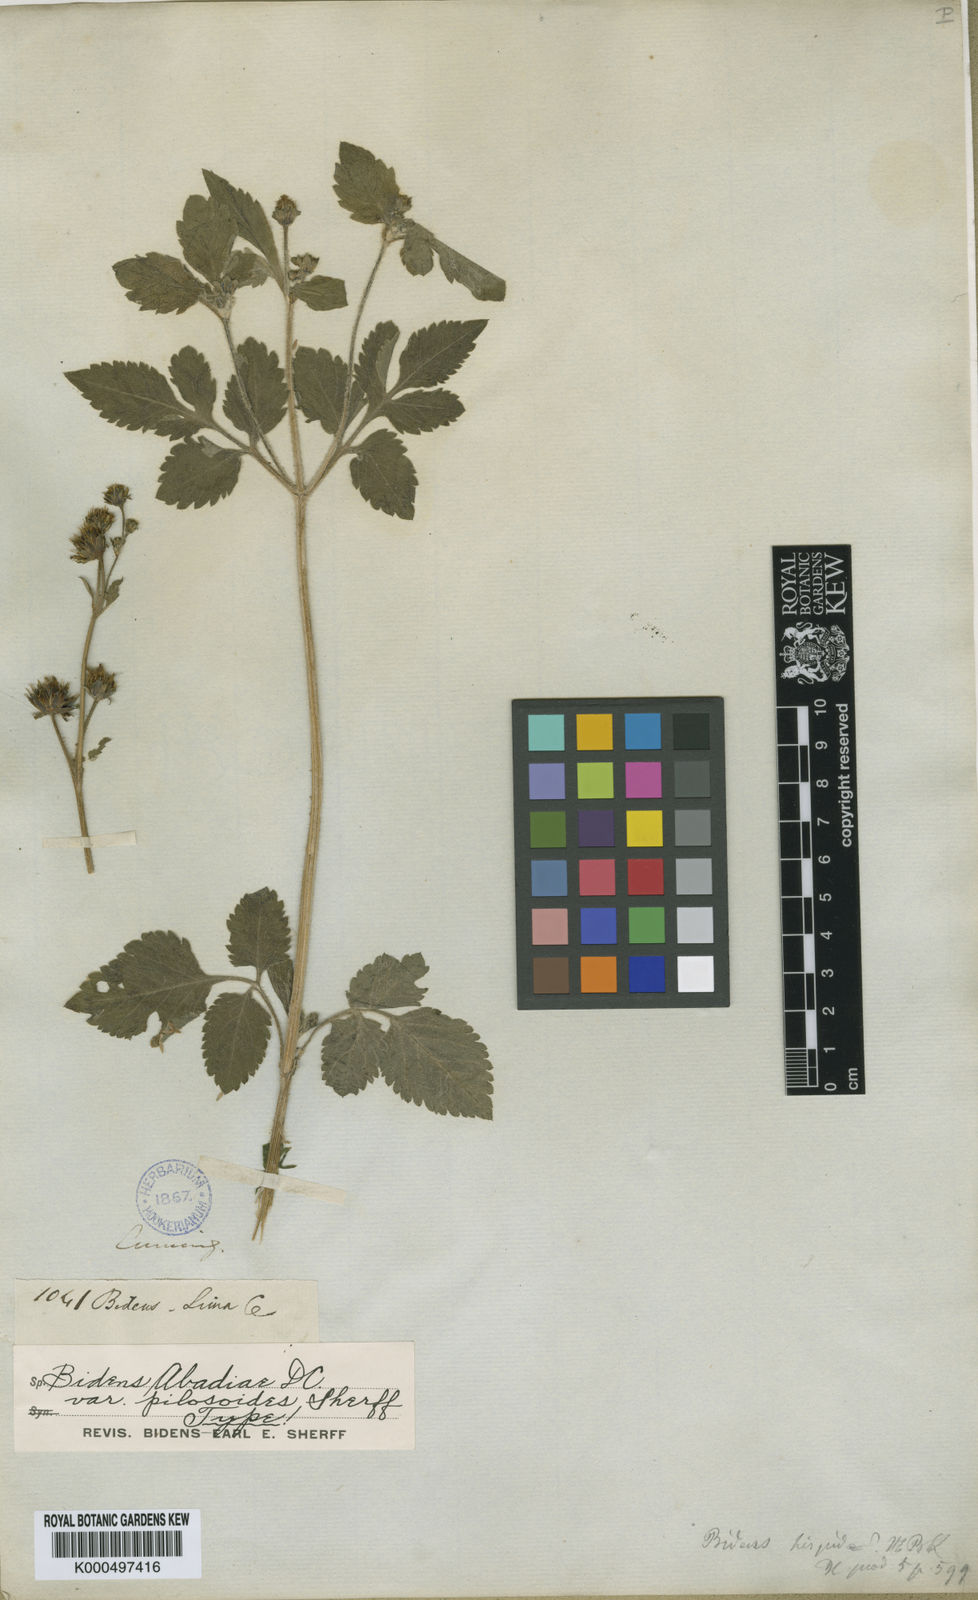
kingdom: Plantae
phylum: Tracheophyta
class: Magnoliopsida
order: Asterales
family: Asteraceae
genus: Bidens
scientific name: Bidens pilosa
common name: Black-jack
